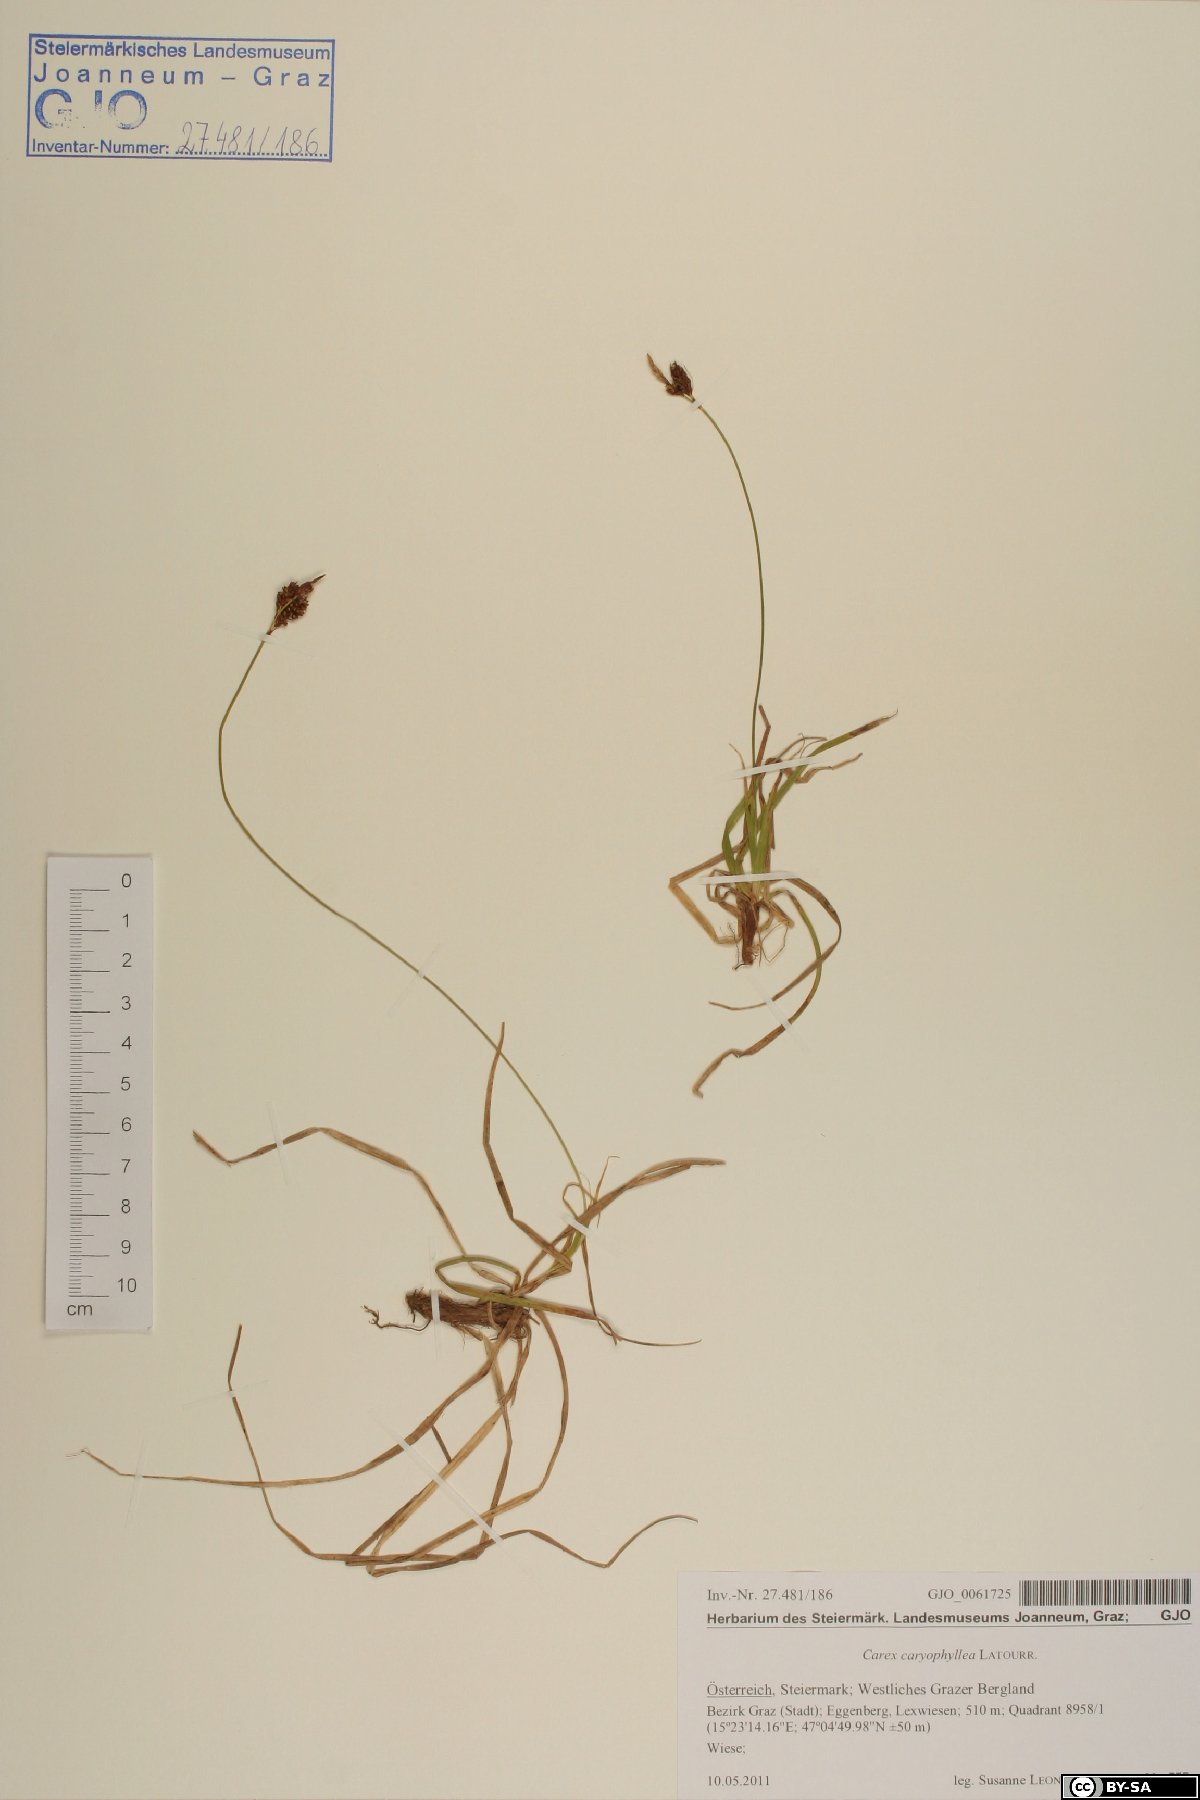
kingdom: Plantae
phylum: Tracheophyta
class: Liliopsida
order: Poales
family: Cyperaceae
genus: Carex
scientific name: Carex caryophyllea
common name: Spring sedge
